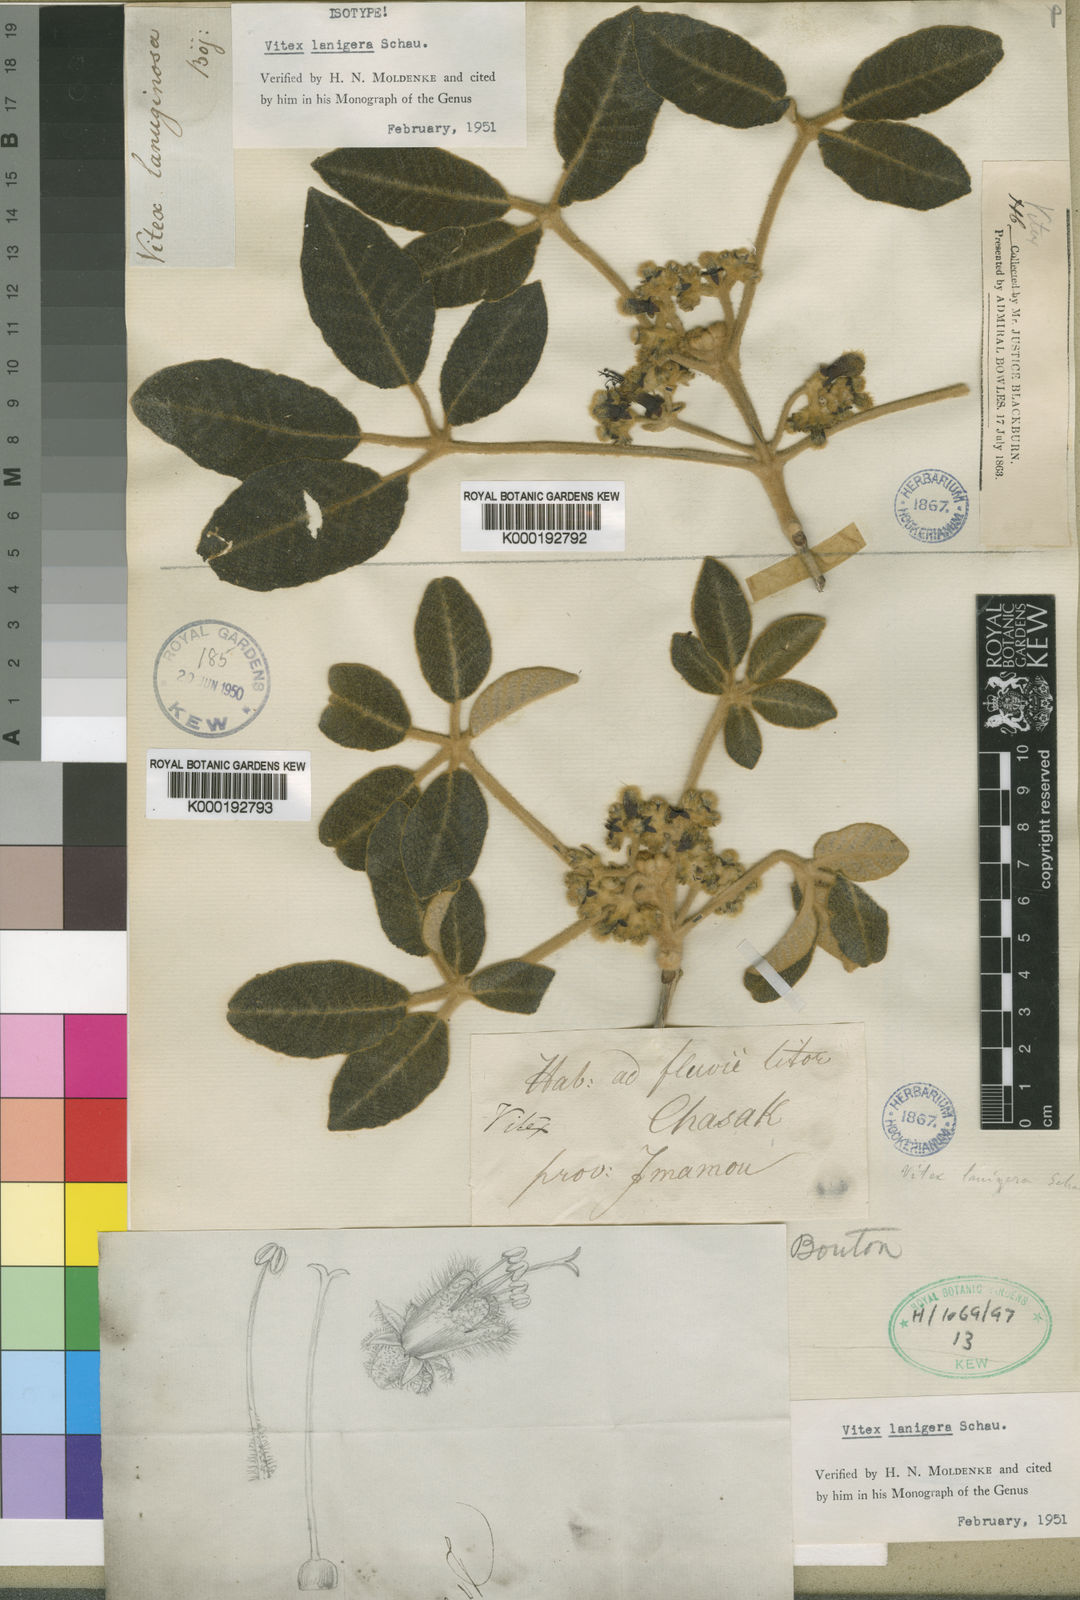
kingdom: Plantae
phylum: Tracheophyta
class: Magnoliopsida
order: Lamiales
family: Lamiaceae
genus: Vitex
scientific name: Vitex lanigera
